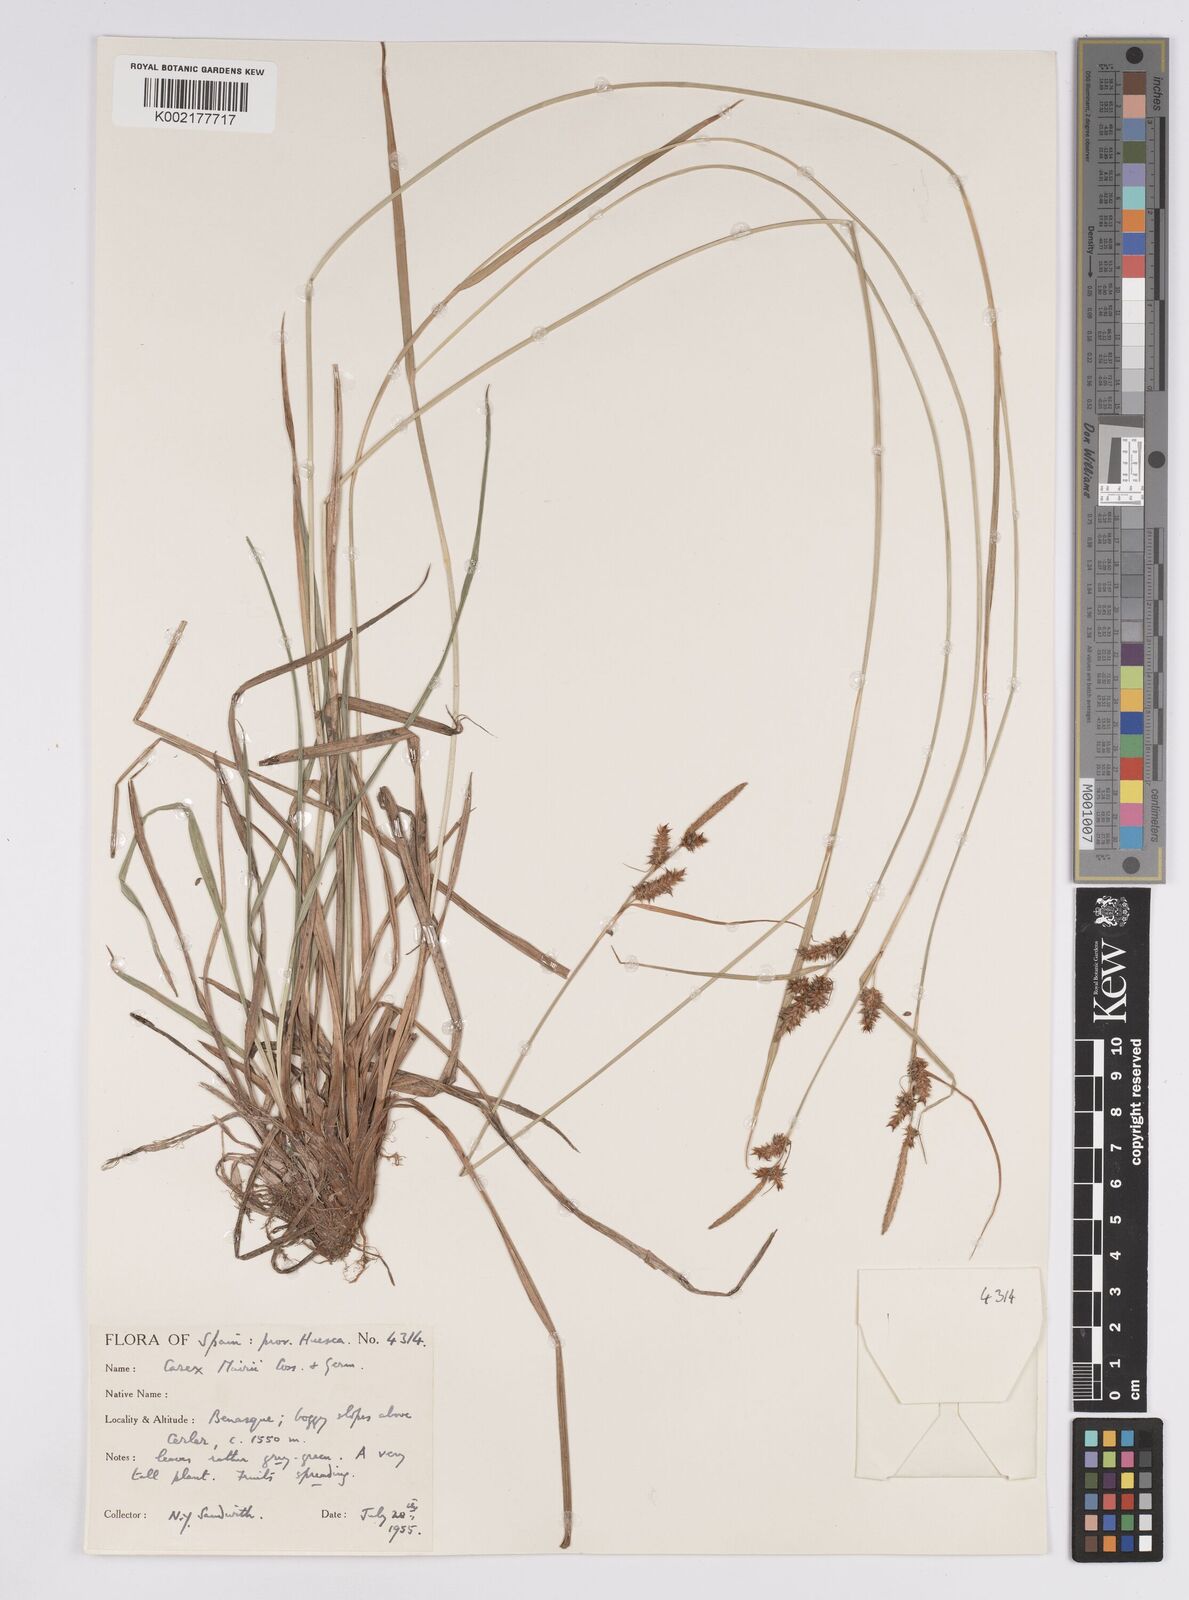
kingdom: Plantae
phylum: Tracheophyta
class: Liliopsida
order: Poales
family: Cyperaceae
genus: Carex
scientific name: Carex mairei
